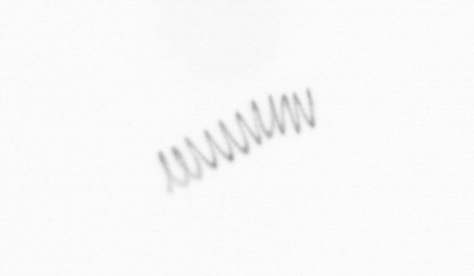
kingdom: Chromista
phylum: Ochrophyta
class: Bacillariophyceae
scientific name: Bacillariophyceae
